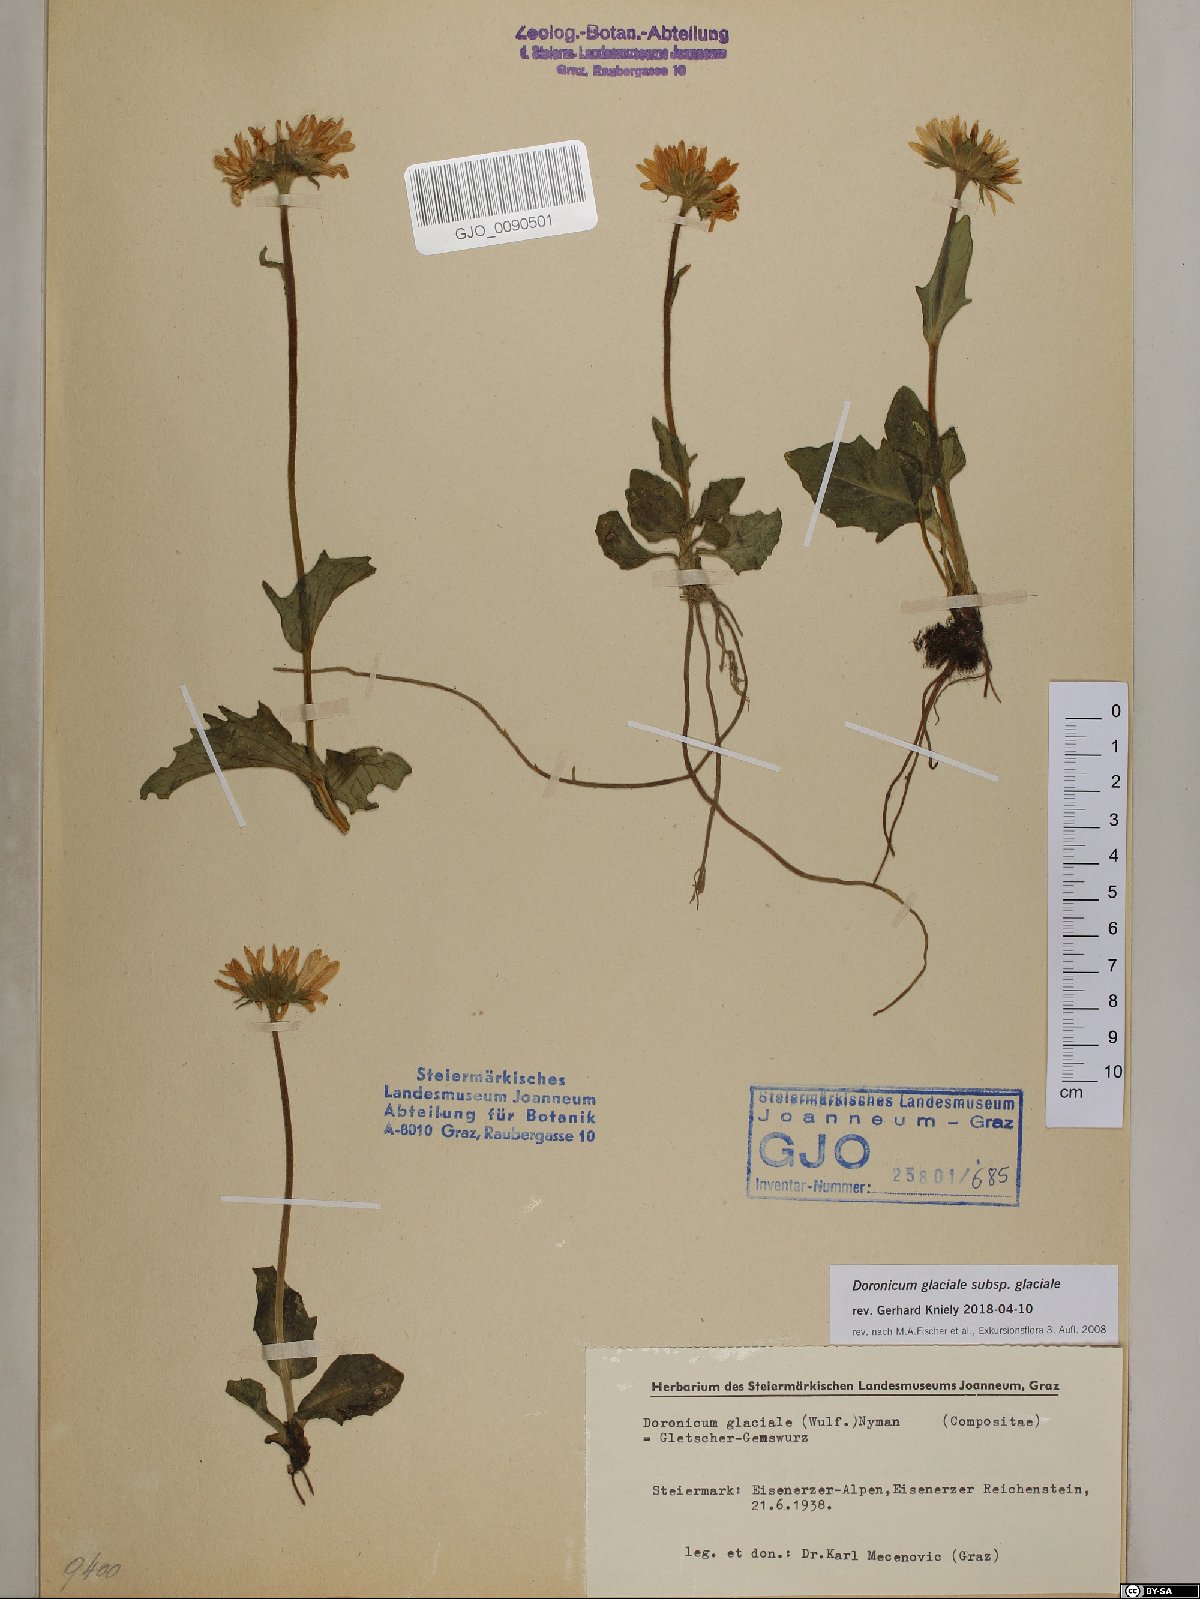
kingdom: Plantae
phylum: Tracheophyta
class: Magnoliopsida
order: Asterales
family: Asteraceae
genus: Doronicum
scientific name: Doronicum glaciale
